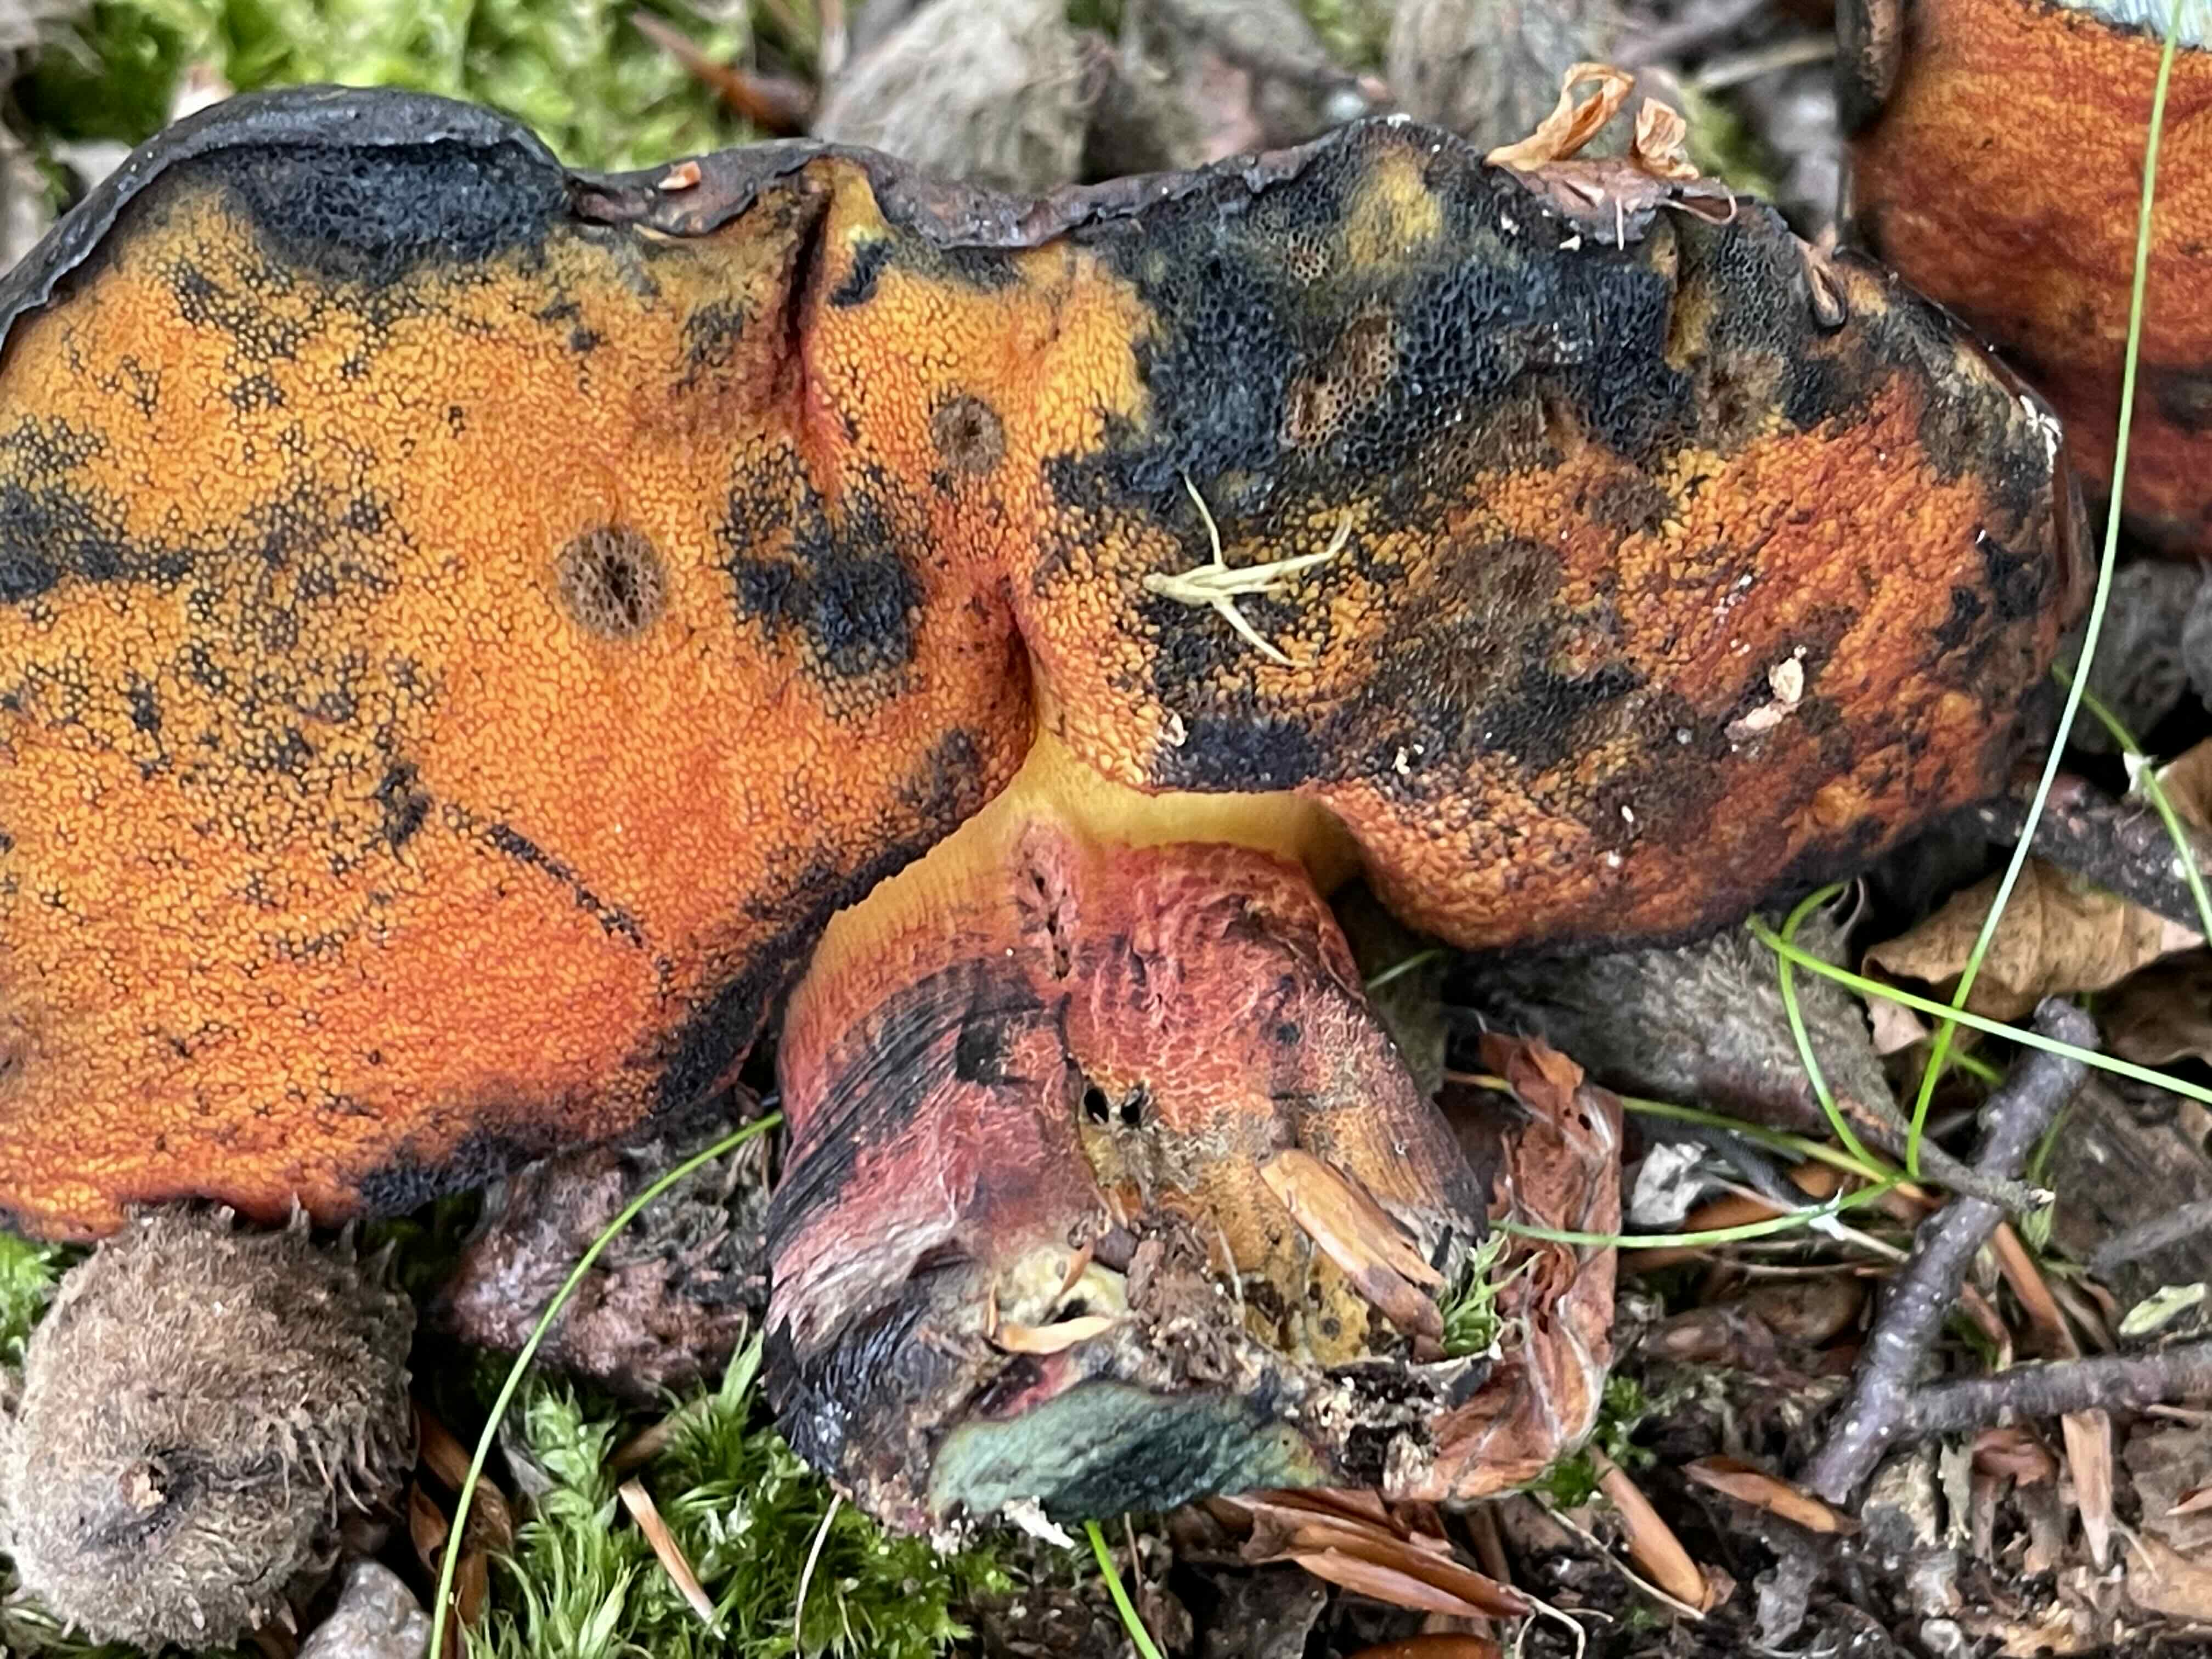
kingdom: Fungi
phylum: Basidiomycota
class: Agaricomycetes
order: Boletales
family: Boletaceae
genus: Neoboletus
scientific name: Neoboletus
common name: indigorørhat
